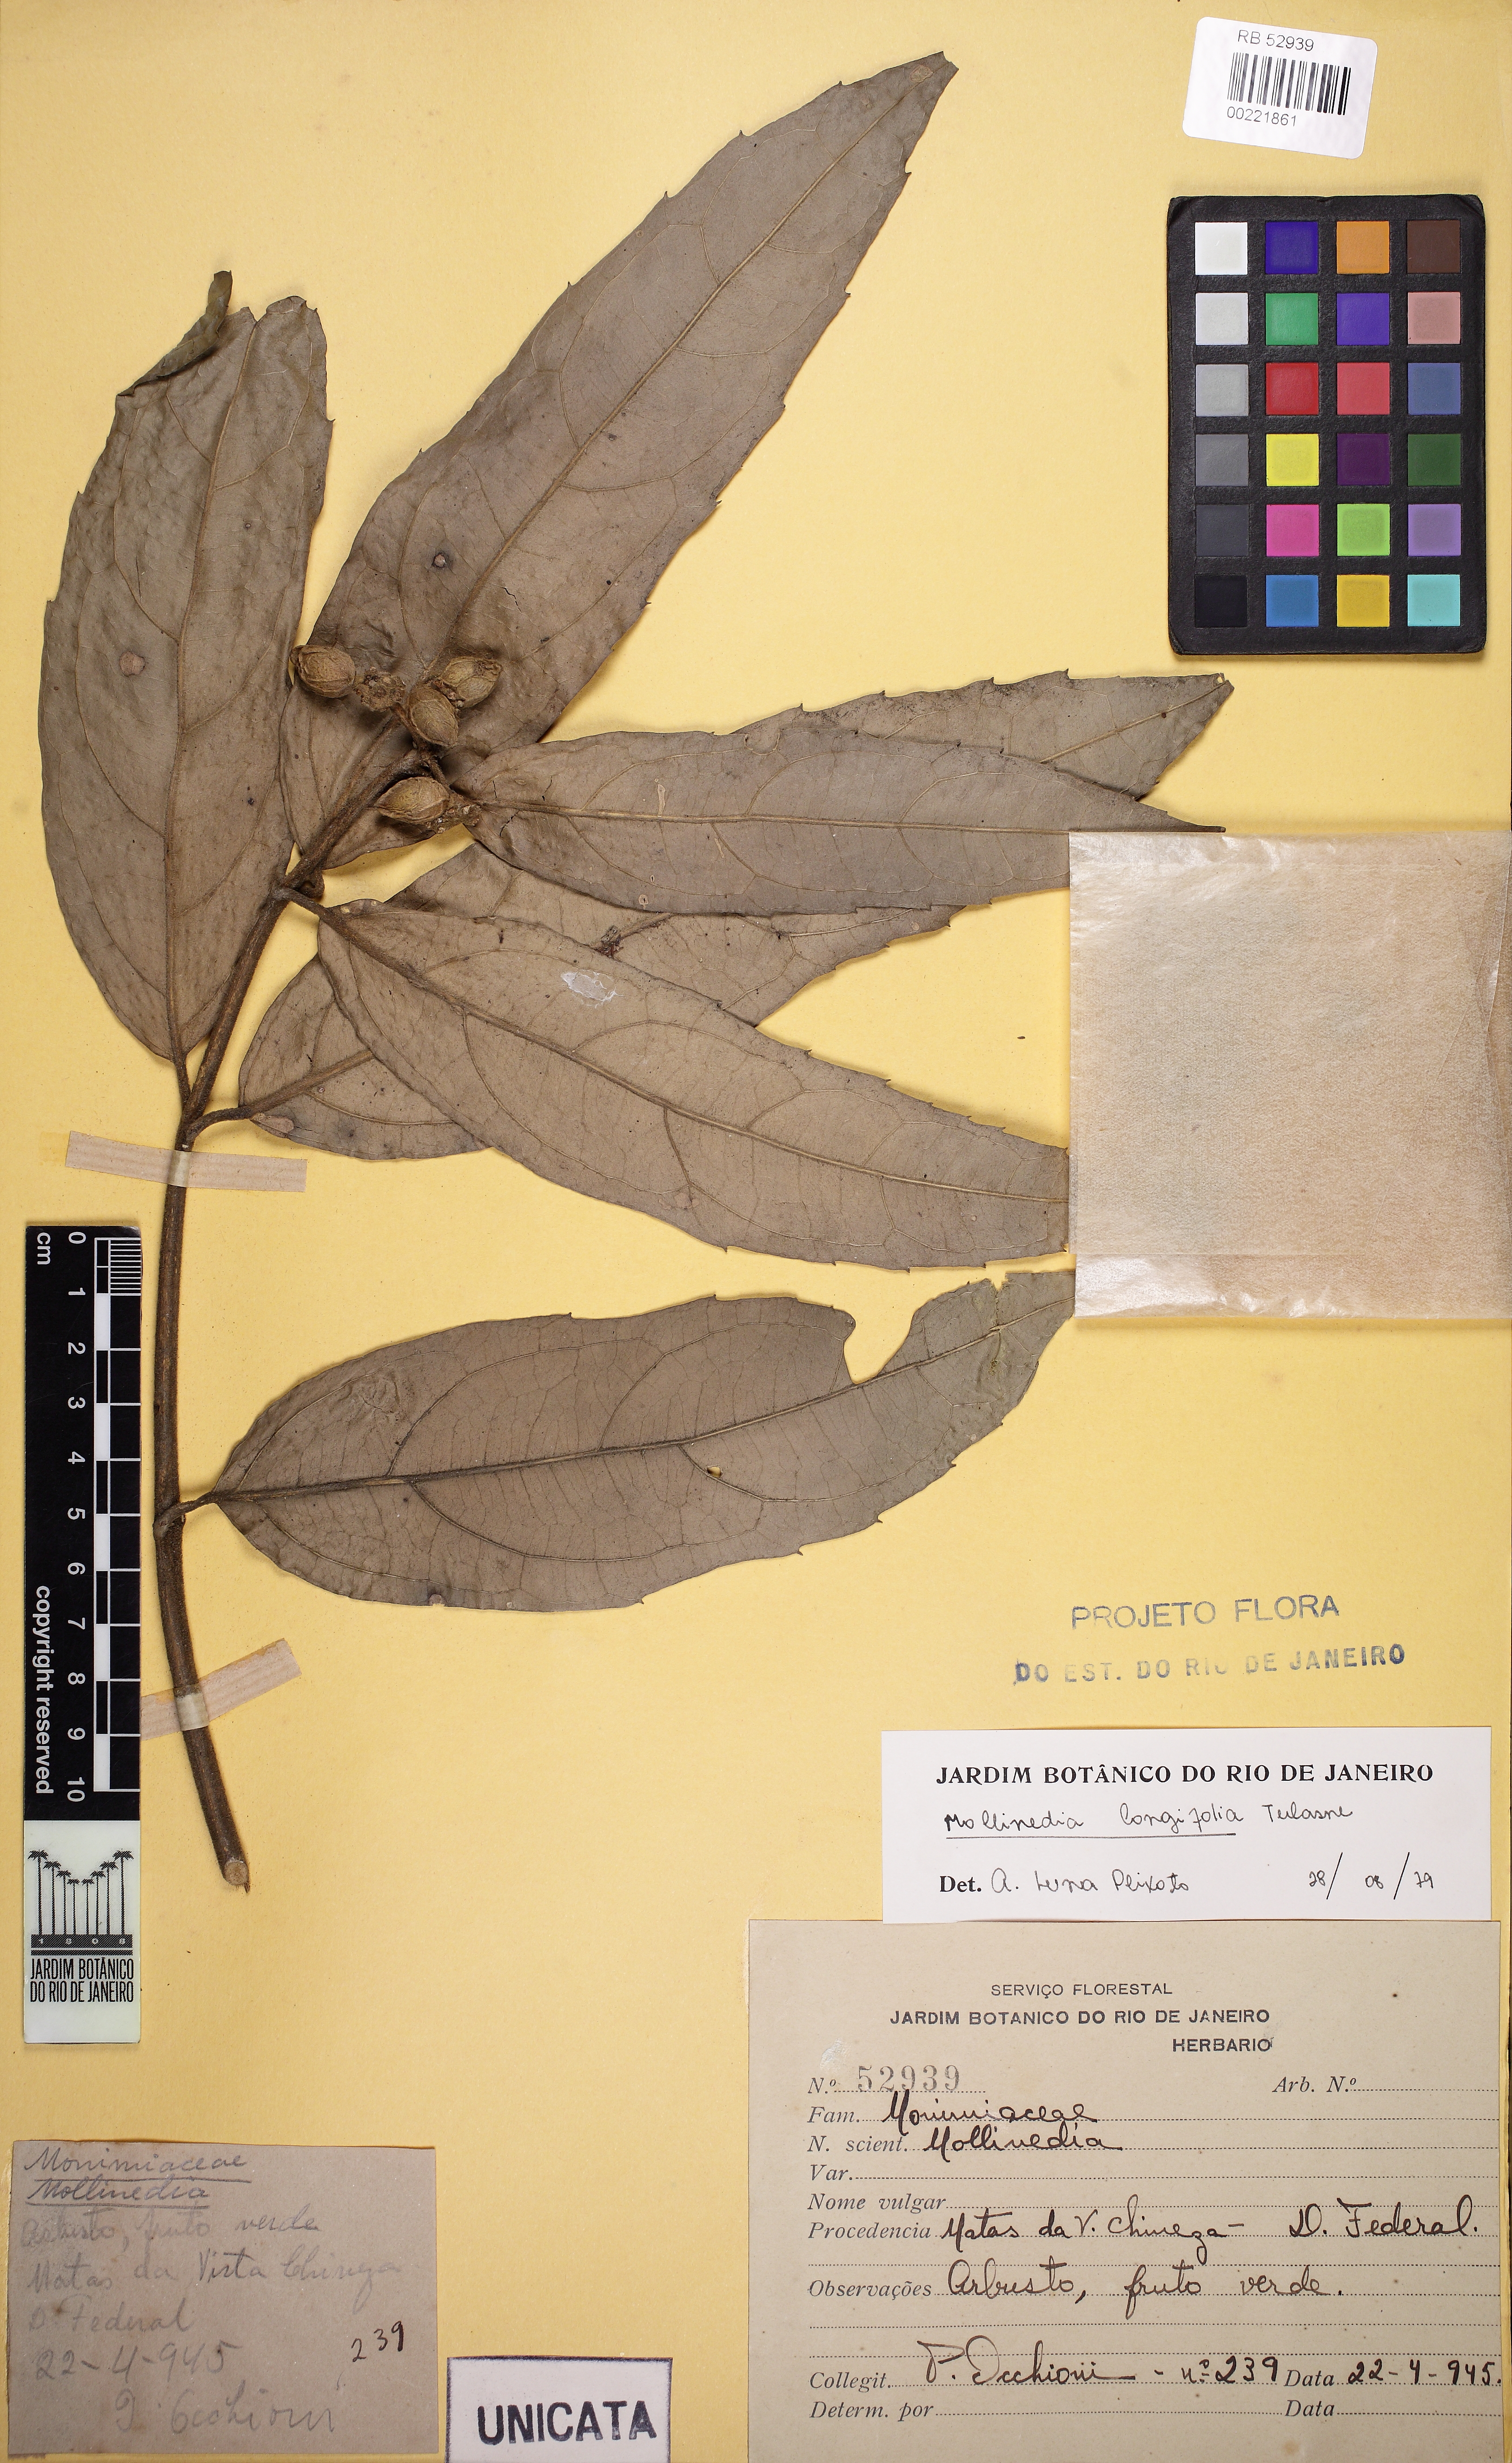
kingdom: Plantae
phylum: Tracheophyta
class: Magnoliopsida
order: Laurales
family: Monimiaceae
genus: Mollinedia
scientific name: Mollinedia longifolia
